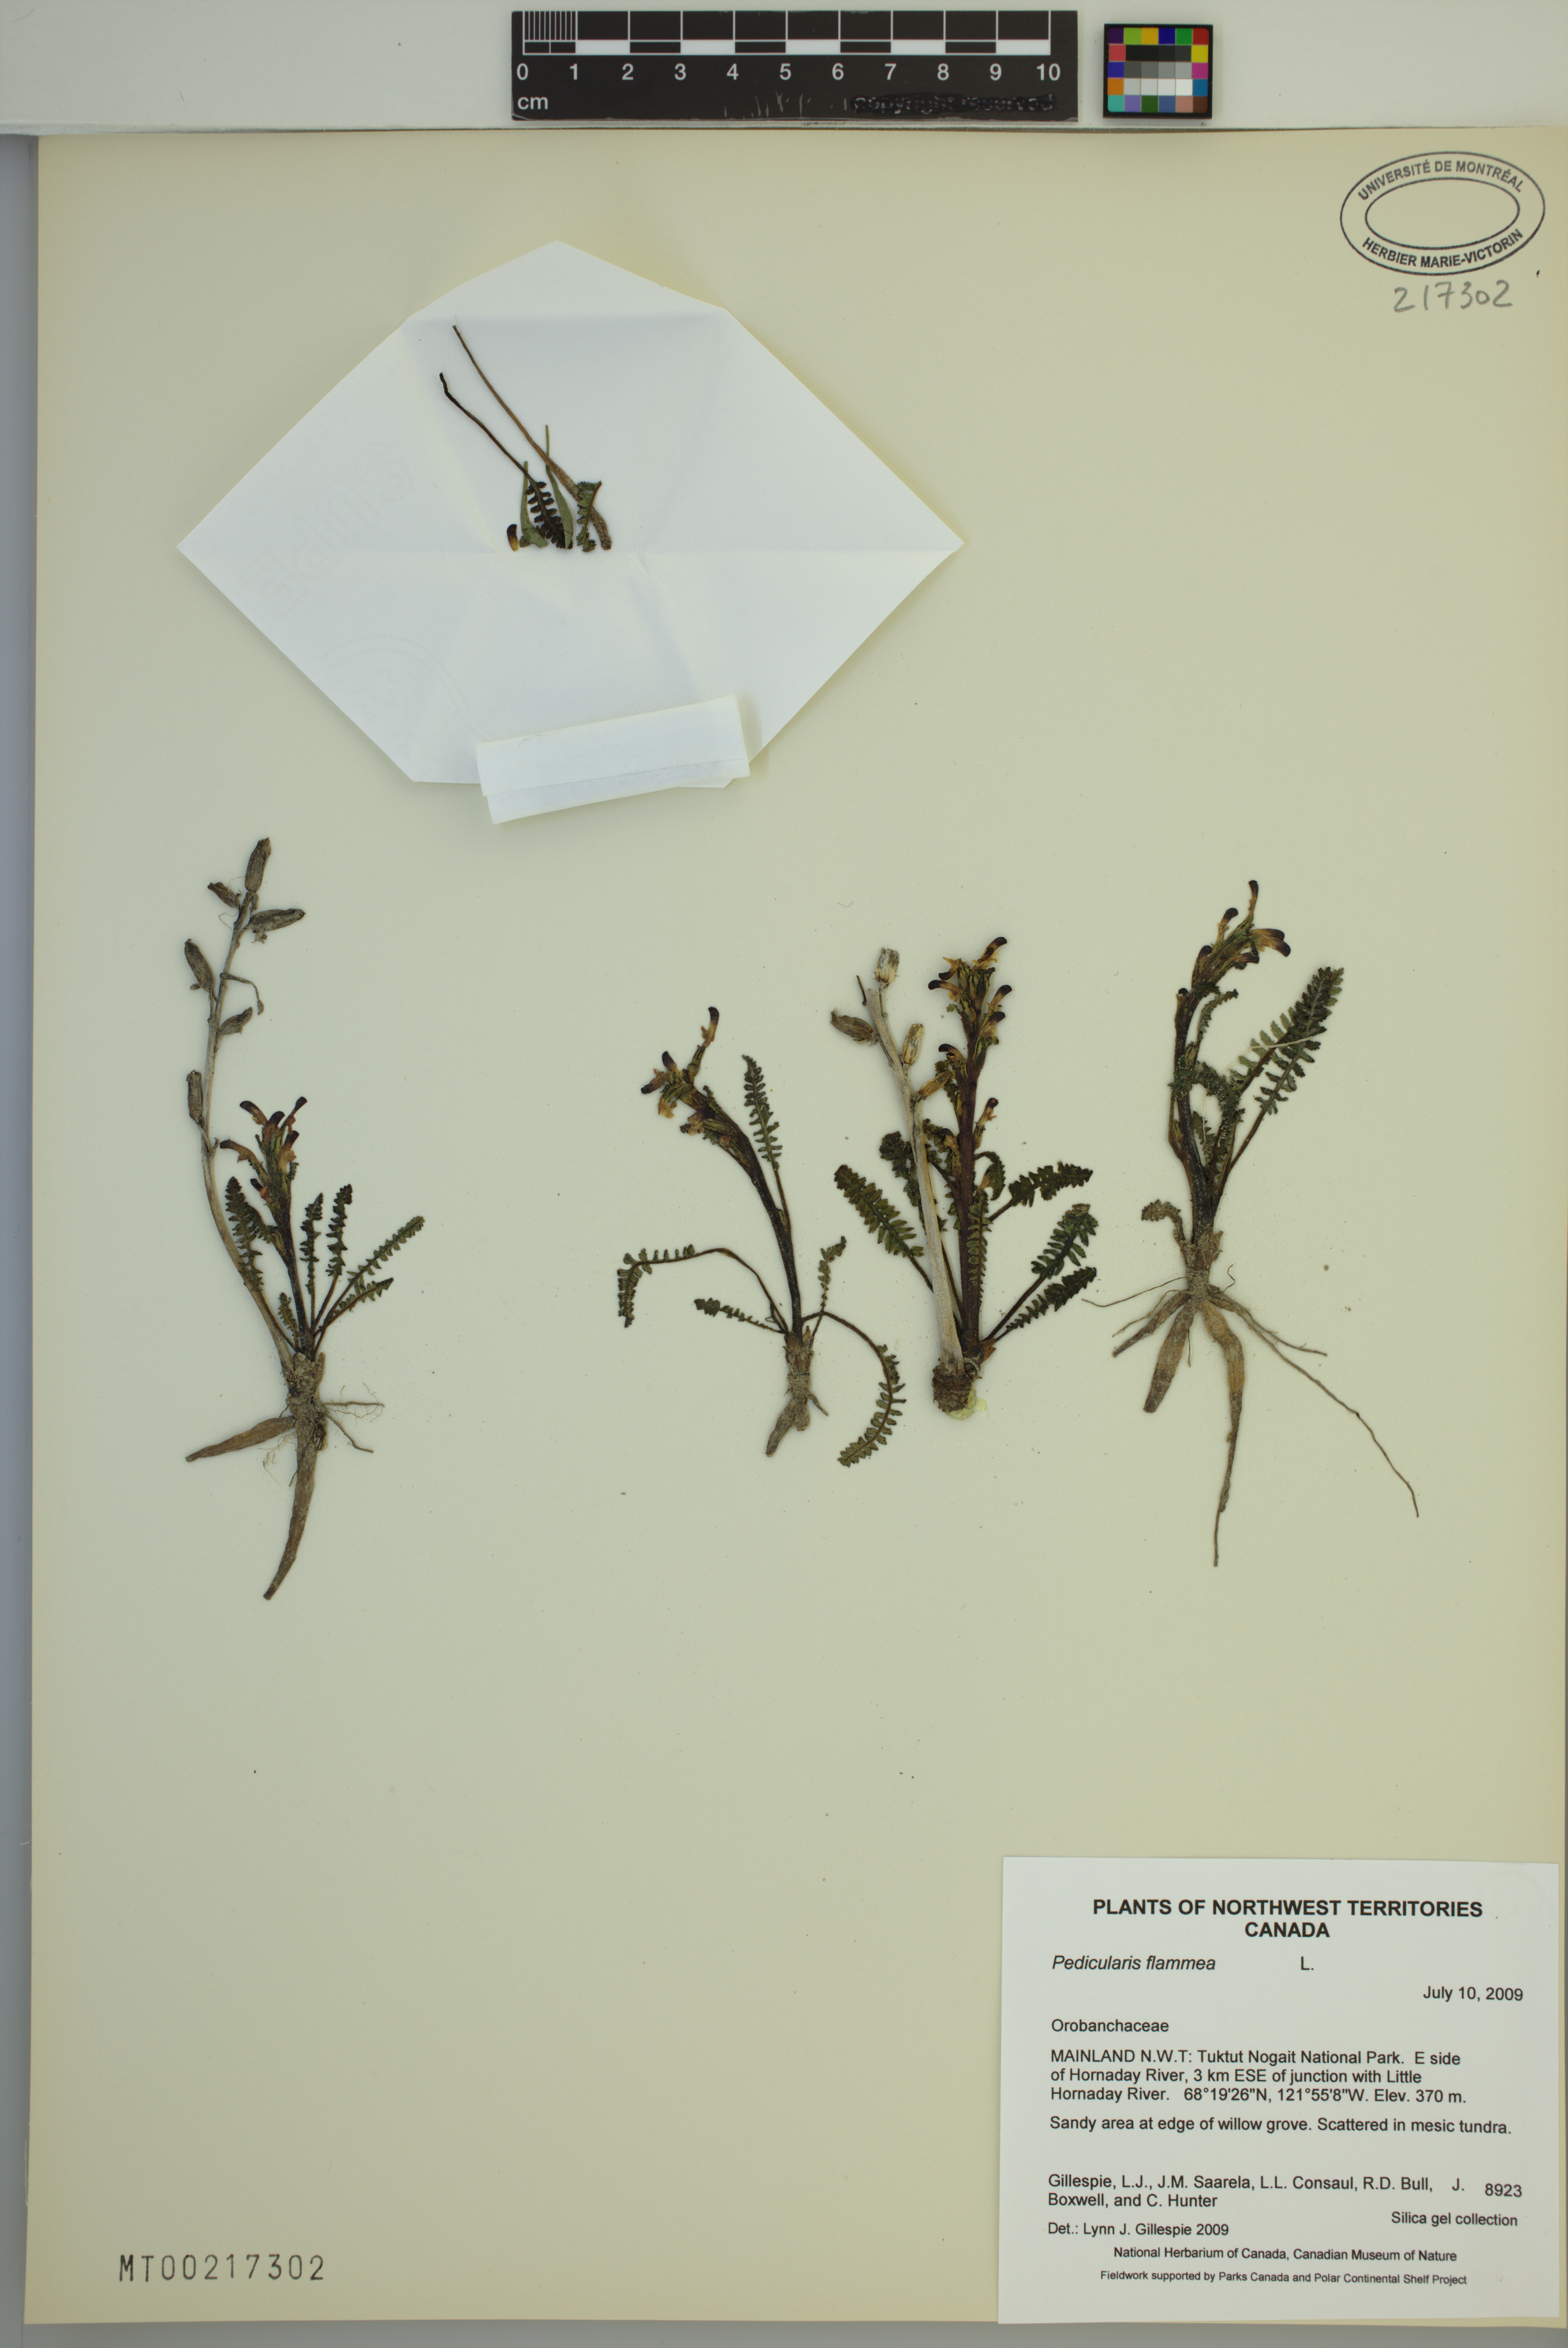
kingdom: Plantae
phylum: Tracheophyta
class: Magnoliopsida
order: Lamiales
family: Orobanchaceae
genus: Pedicularis
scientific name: Pedicularis flammea
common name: Flame-coloured lousewort
